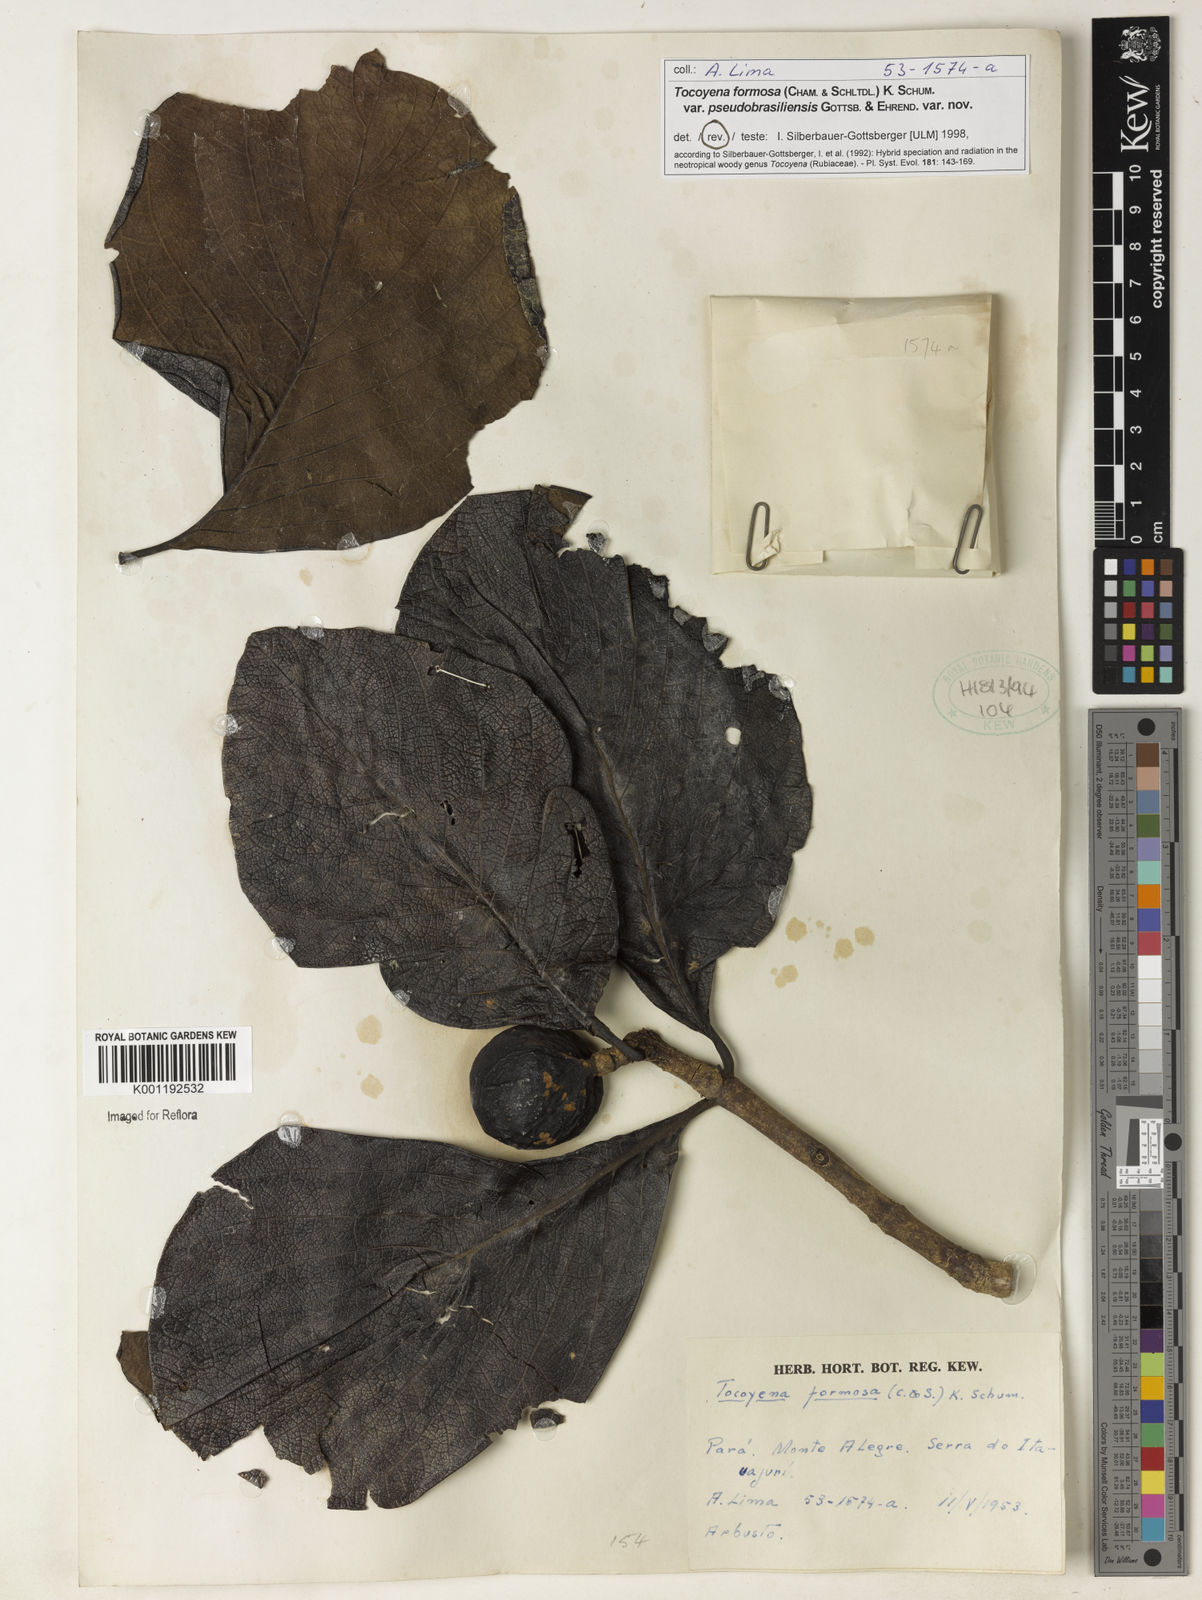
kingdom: Plantae
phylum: Tracheophyta
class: Magnoliopsida
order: Gentianales
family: Rubiaceae
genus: Tocoyena
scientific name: Tocoyena formosa
